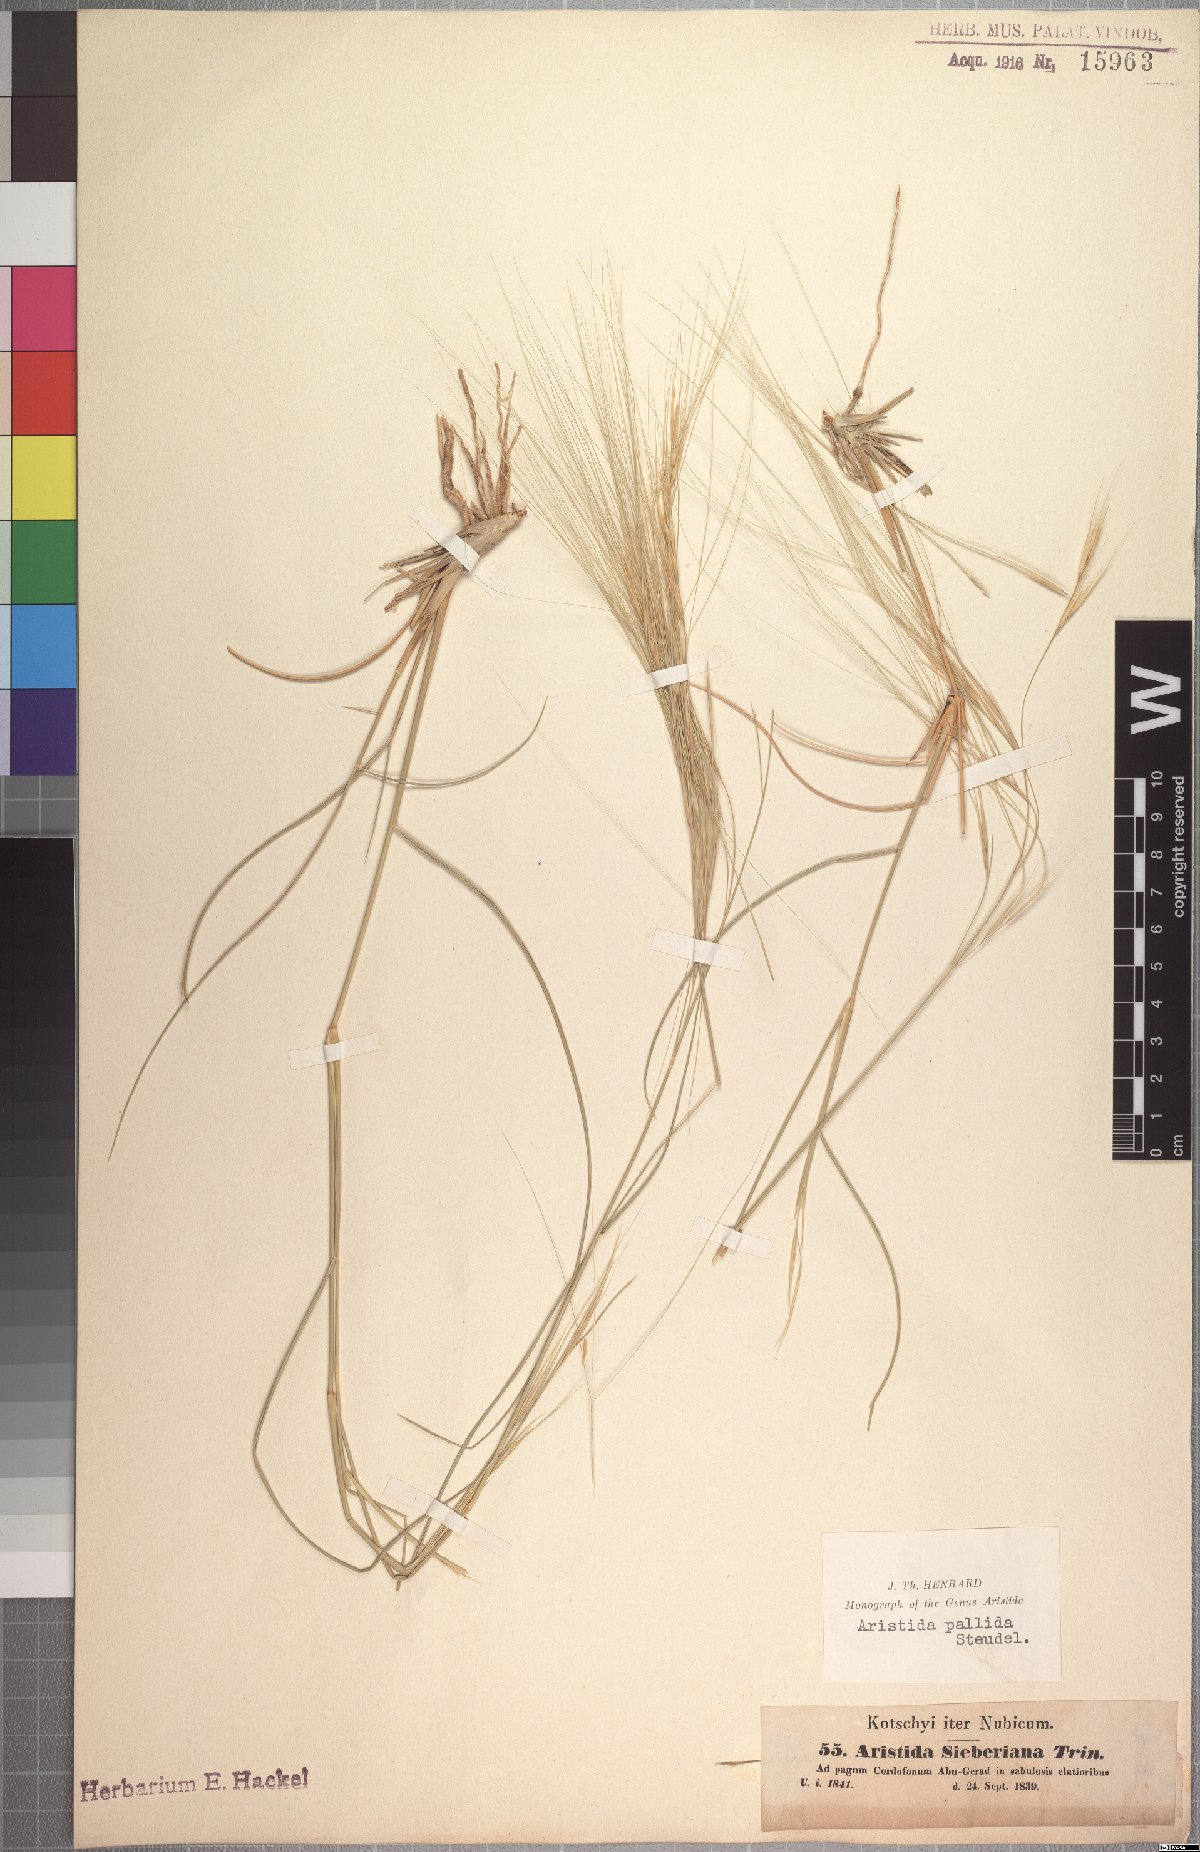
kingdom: Plantae
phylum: Tracheophyta
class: Liliopsida
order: Poales
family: Poaceae
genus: Aristida
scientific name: Aristida sieberiana
